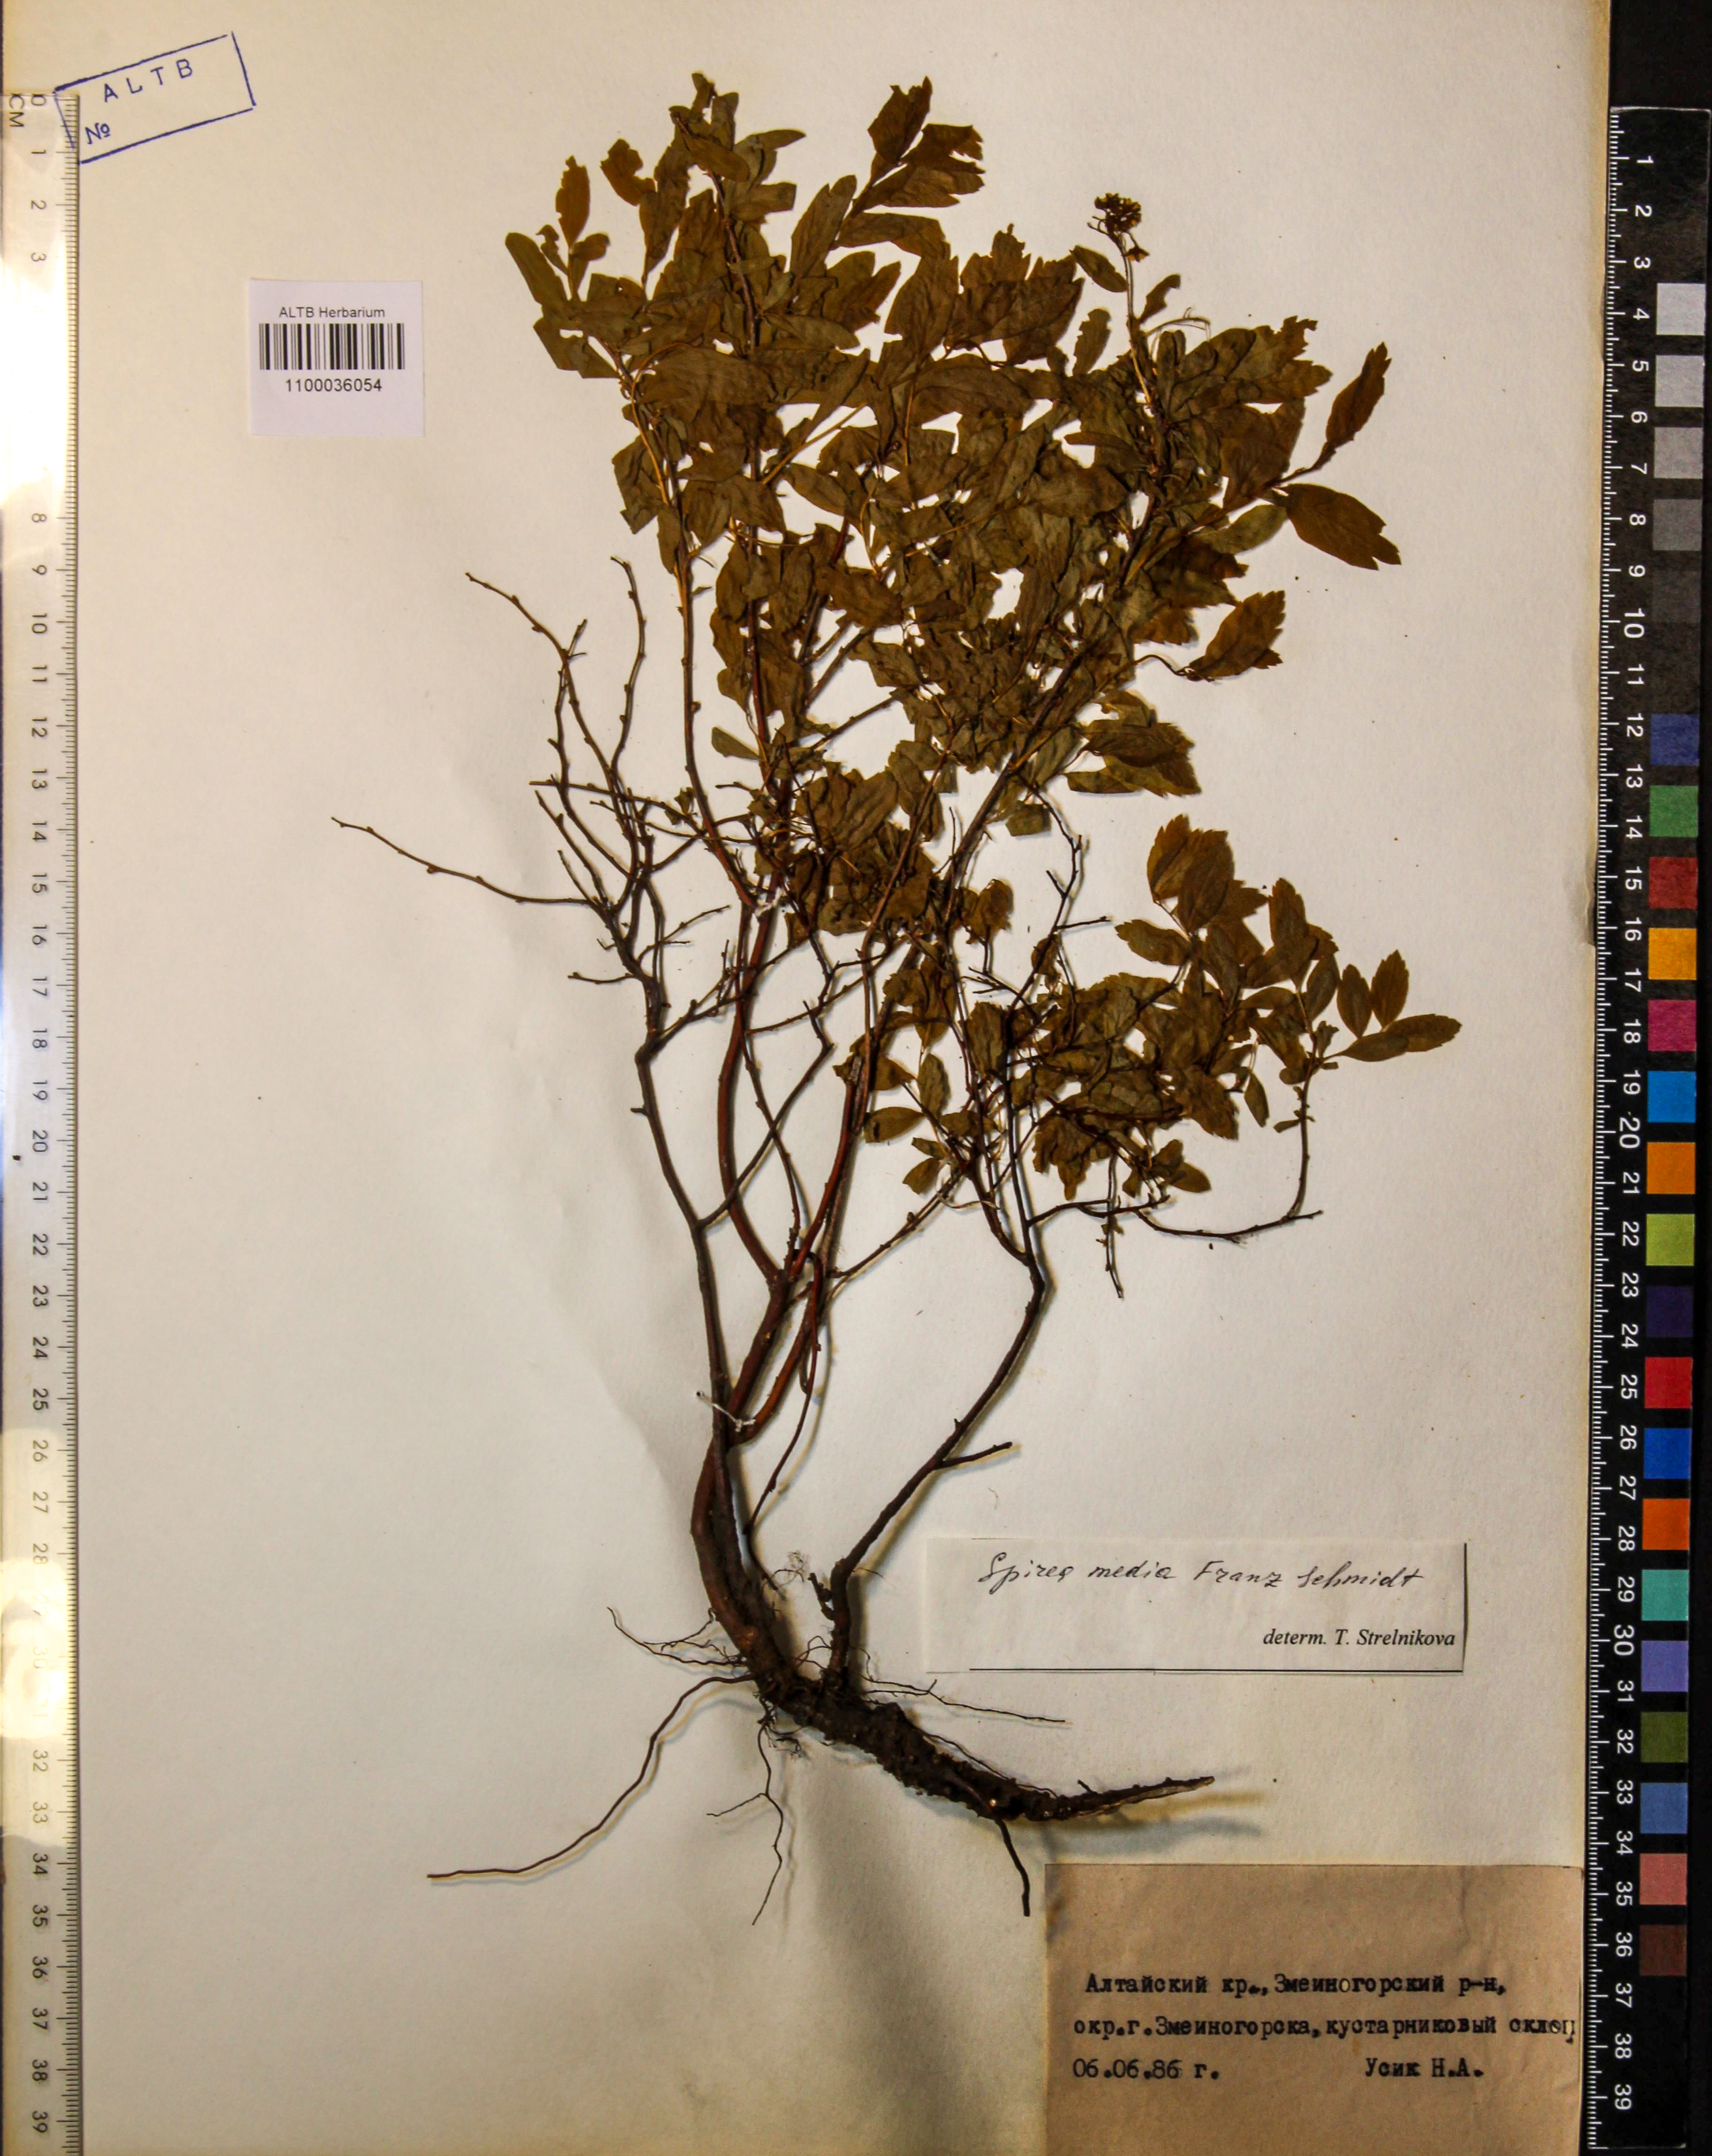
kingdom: Plantae
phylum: Tracheophyta
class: Magnoliopsida
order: Rosales
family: Rosaceae
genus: Spiraea
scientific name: Spiraea media
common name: Russian spiraea
